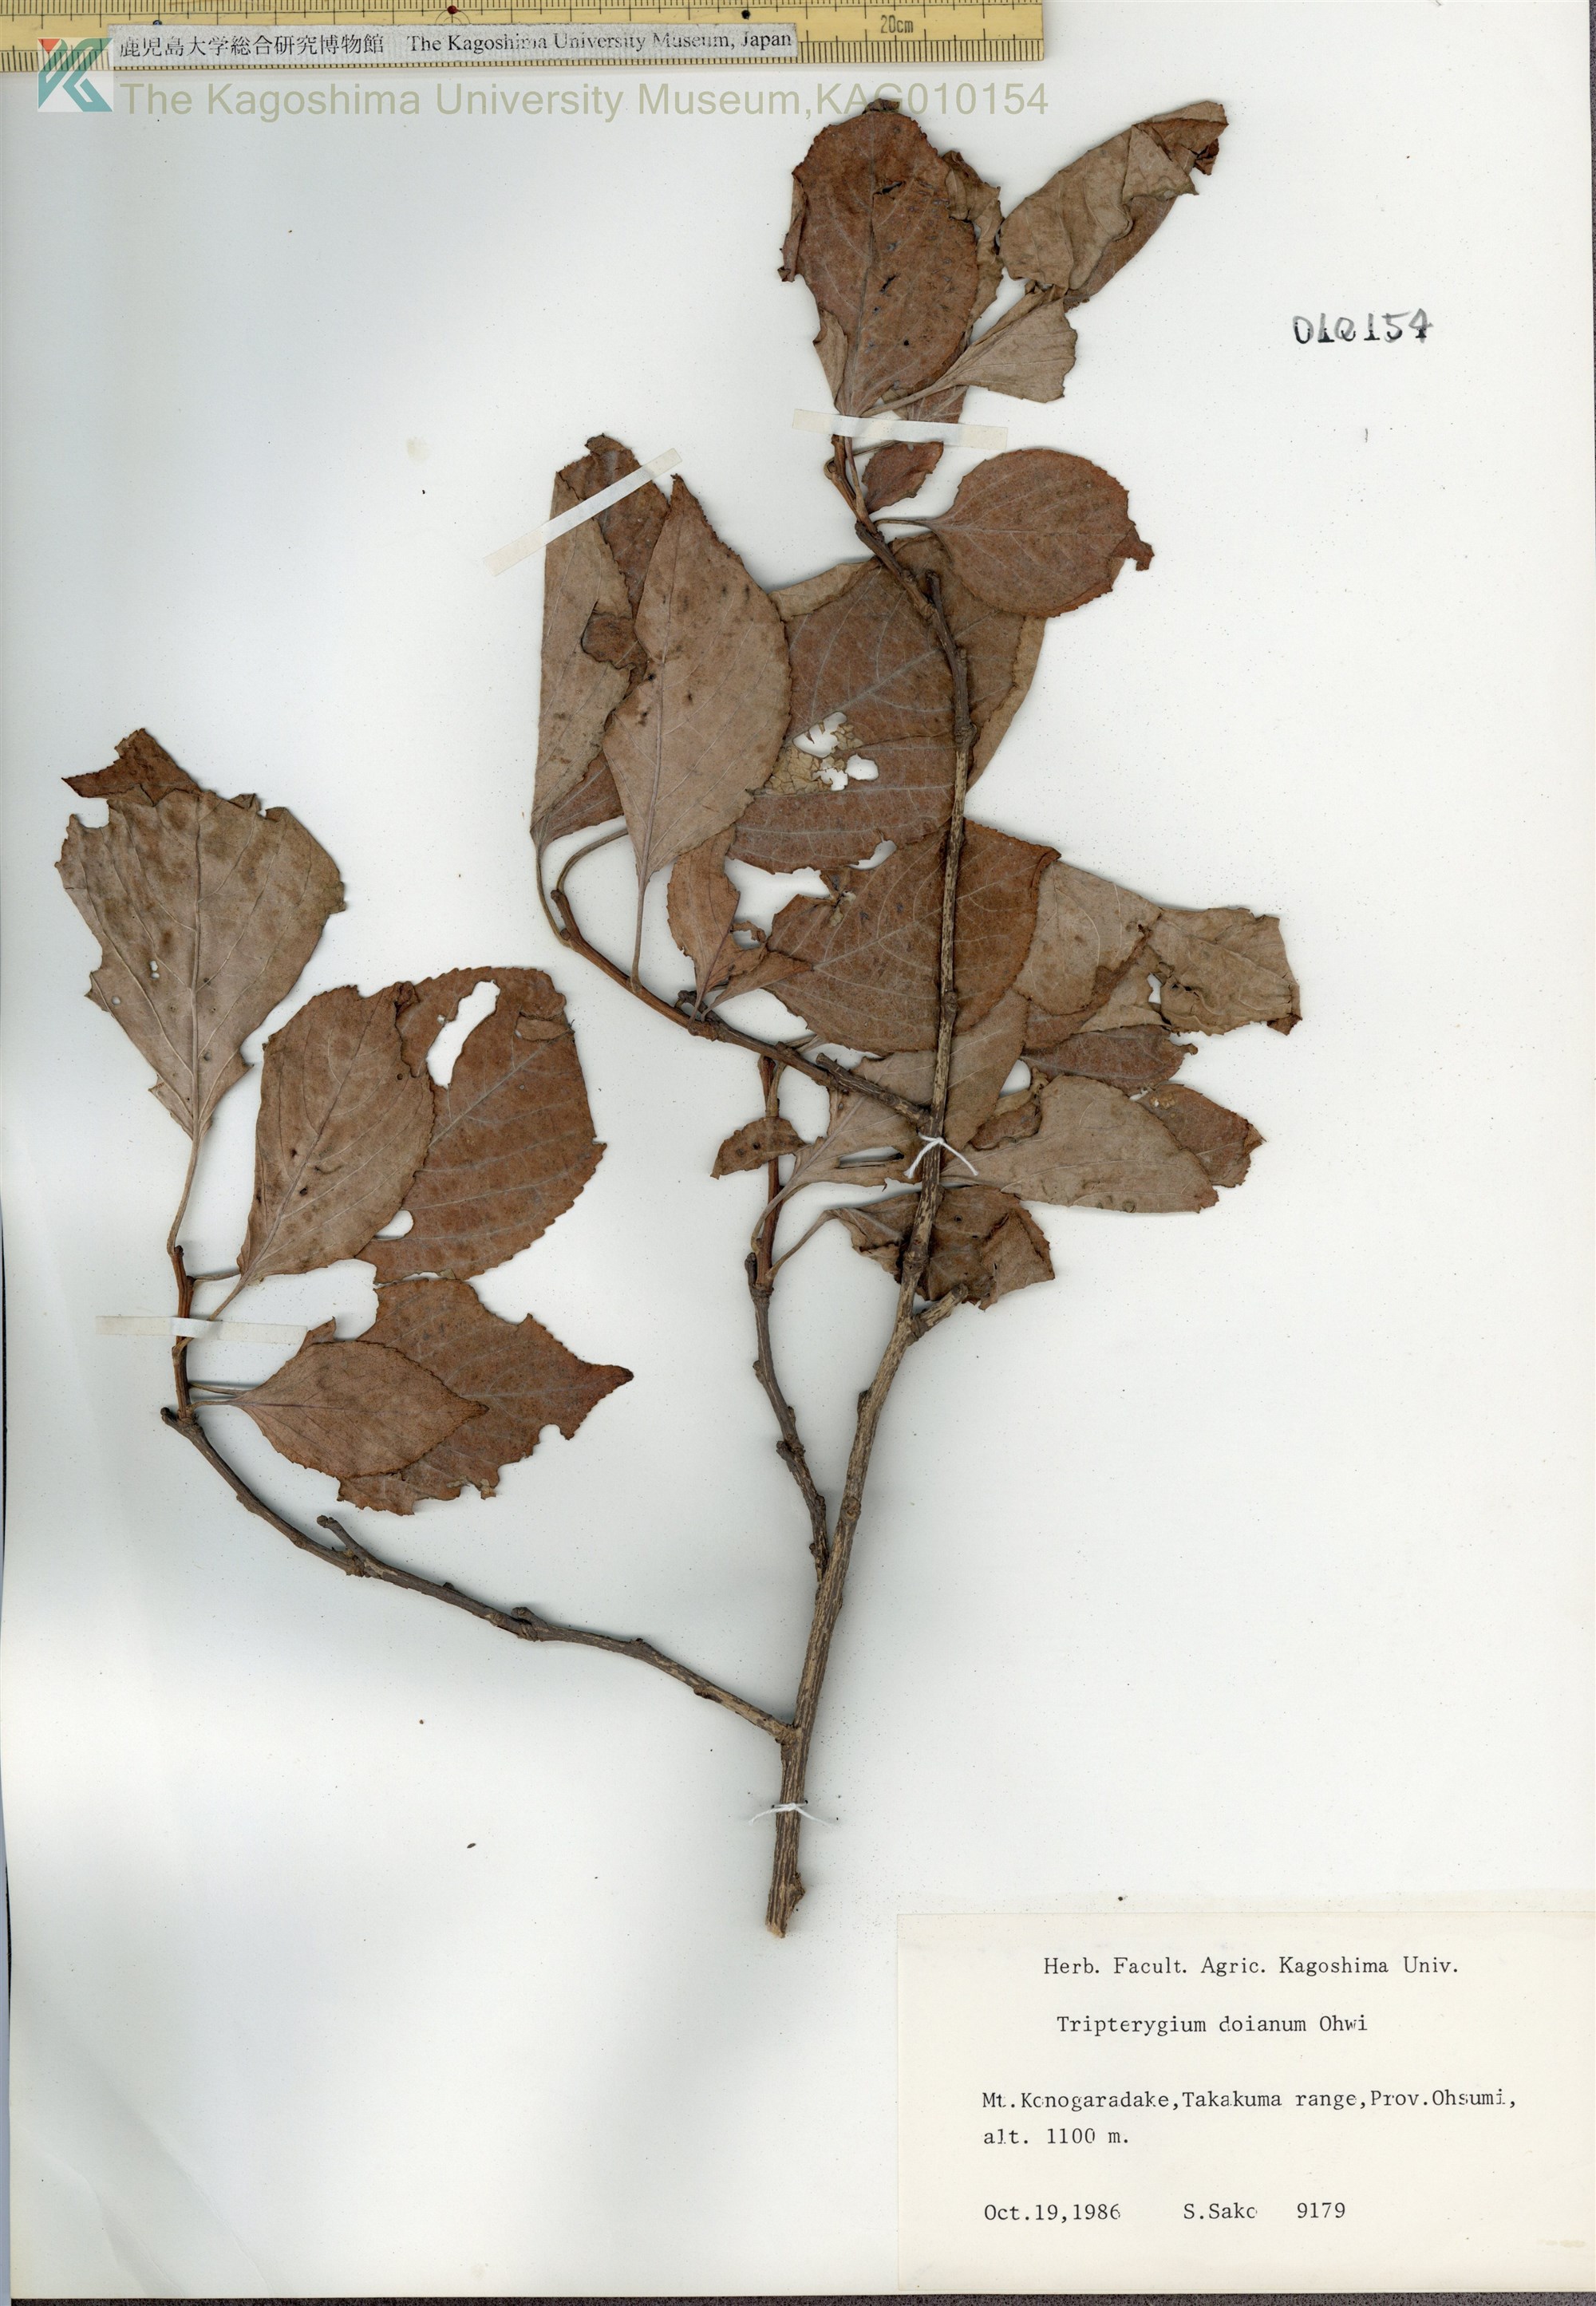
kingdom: Plantae
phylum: Tracheophyta
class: Magnoliopsida
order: Celastrales
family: Celastraceae
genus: Tripterygium
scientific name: Tripterygium doianum
